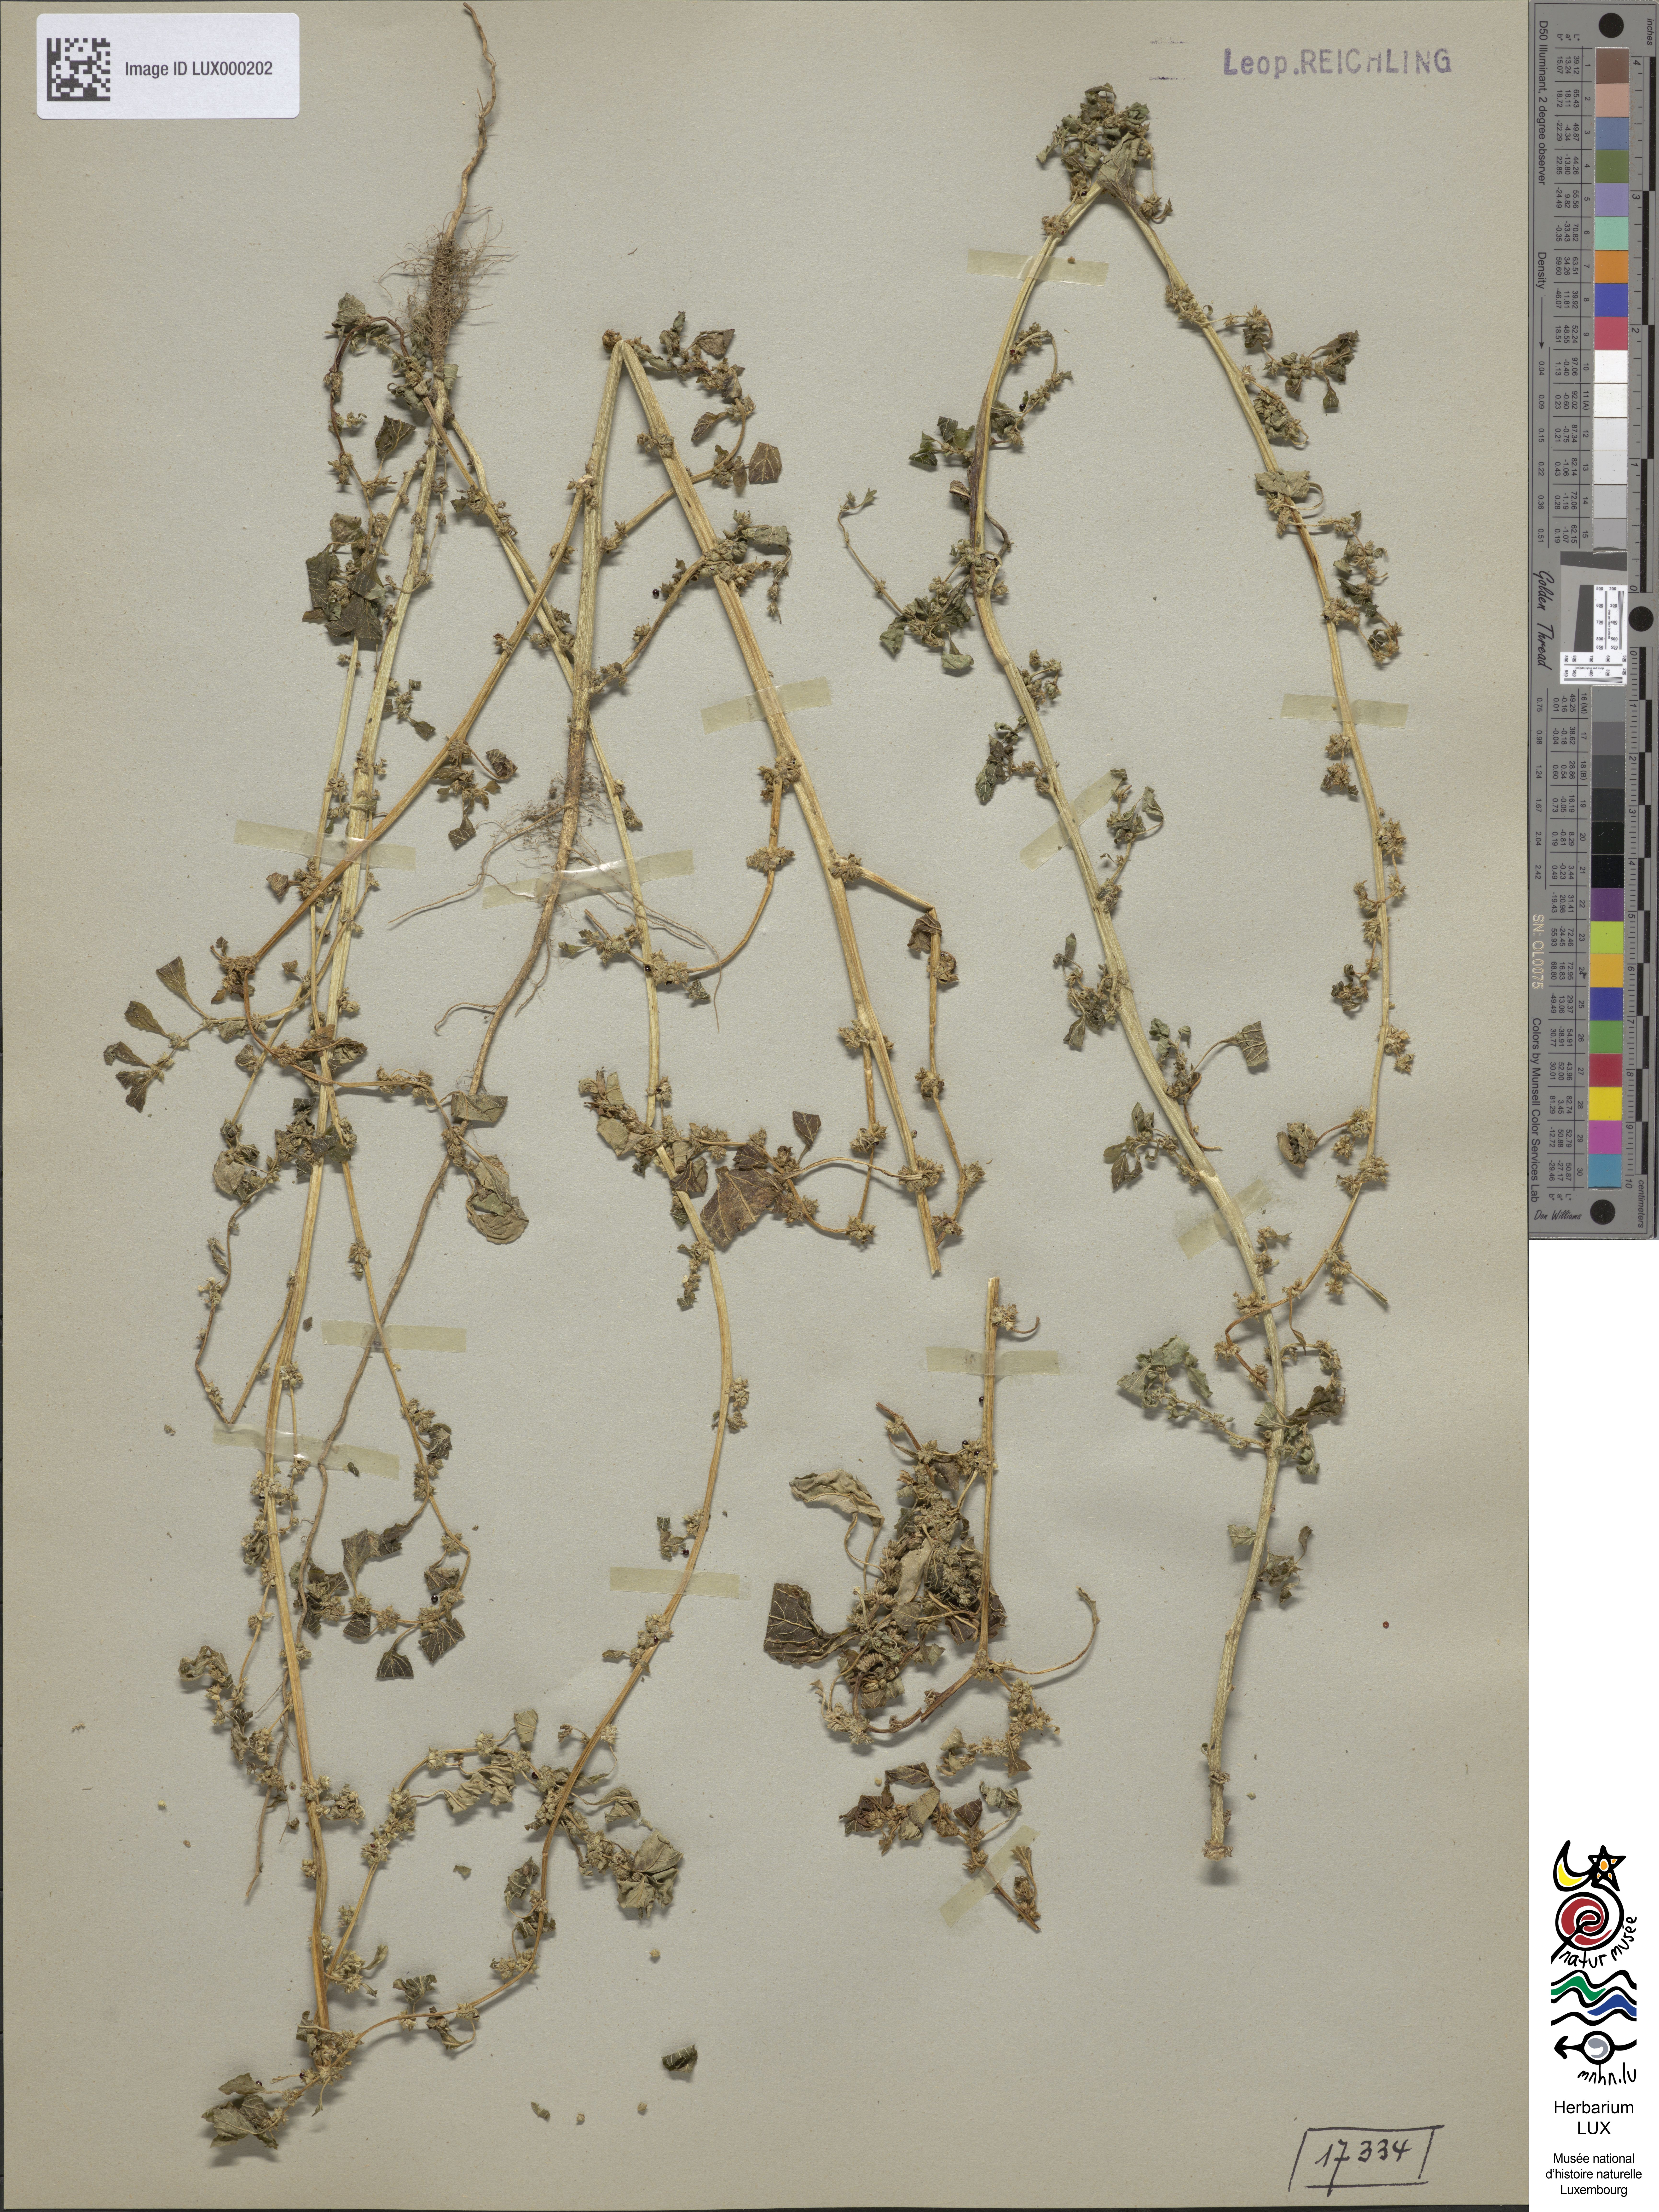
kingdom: Plantae
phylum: Tracheophyta
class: Magnoliopsida
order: Caryophyllales
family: Amaranthaceae
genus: Amaranthus
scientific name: Amaranthus
